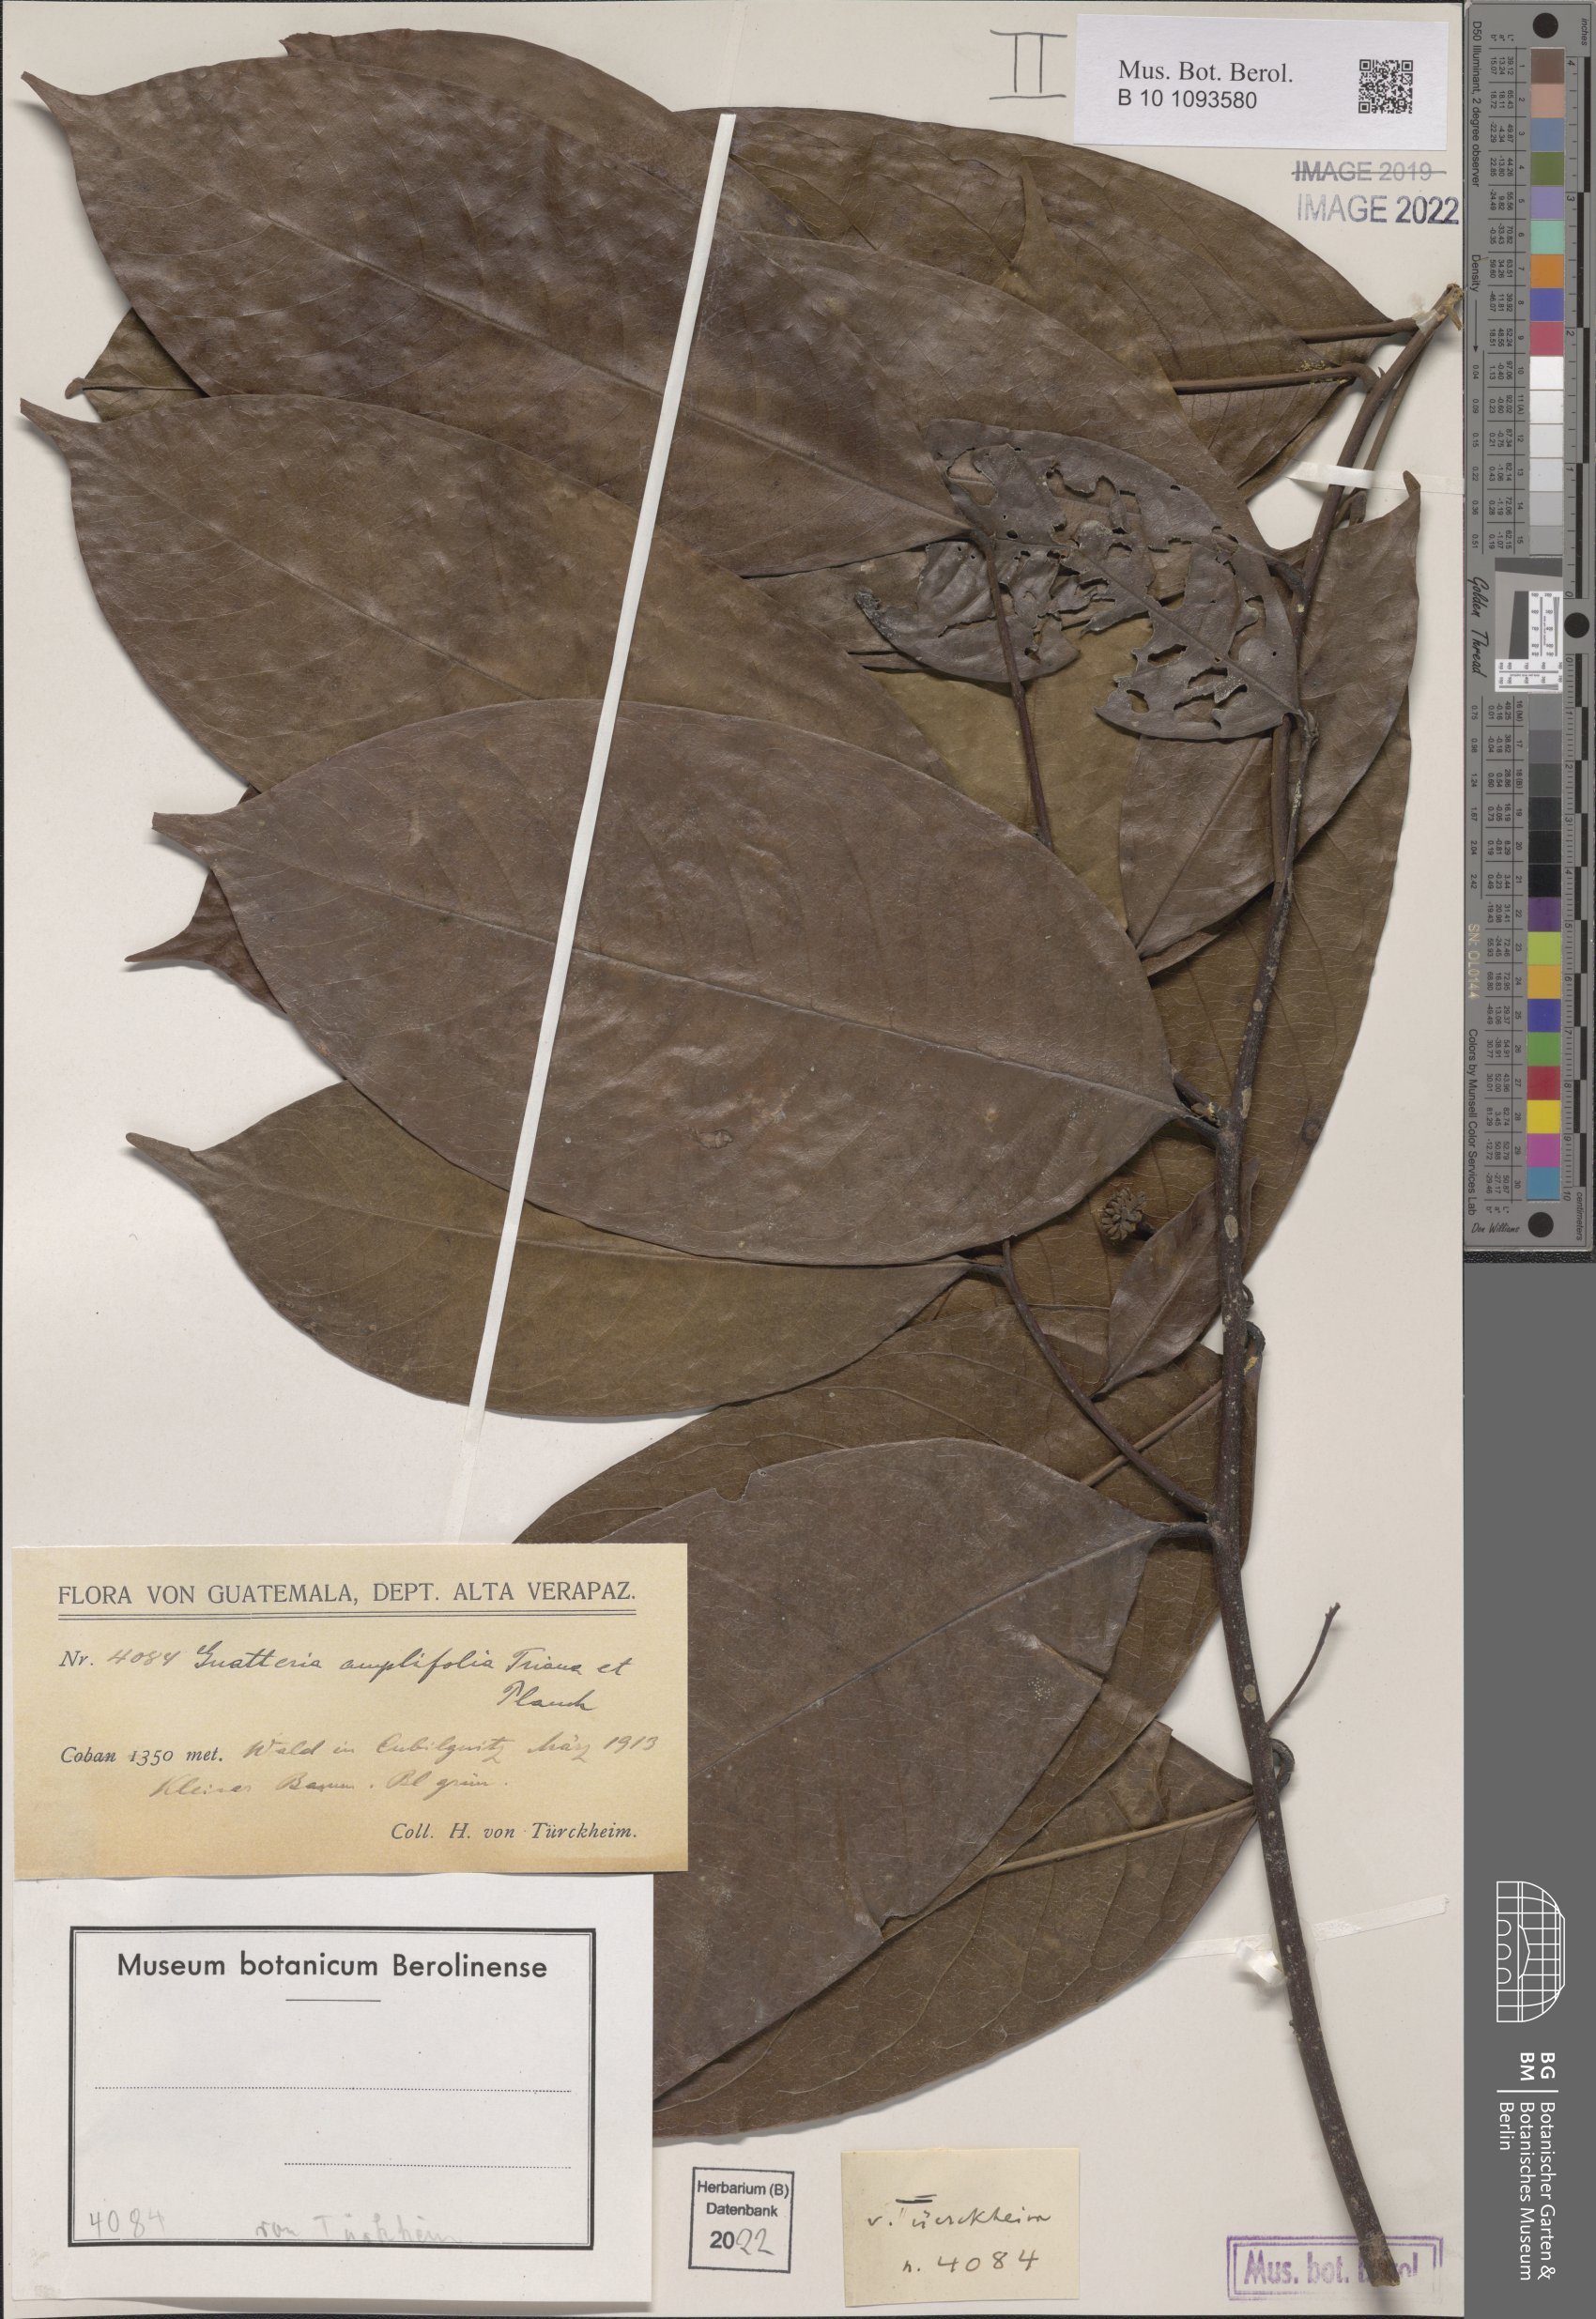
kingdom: Plantae
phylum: Tracheophyta
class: Magnoliopsida
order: Magnoliales
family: Annonaceae
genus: Guatteria
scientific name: Guatteria amplifolia
